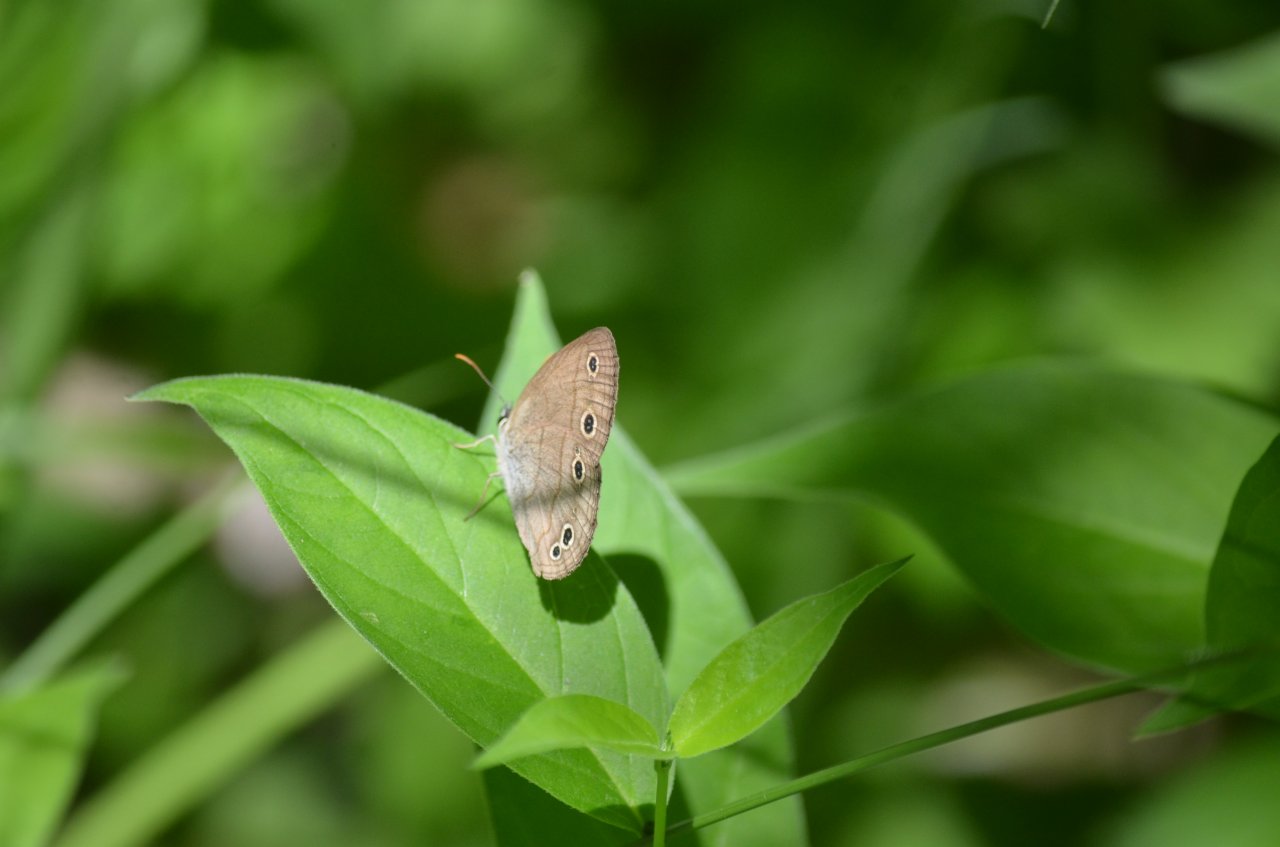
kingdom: Animalia
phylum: Arthropoda
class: Insecta
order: Lepidoptera
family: Nymphalidae
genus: Euptychia
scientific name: Euptychia cymela
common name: Little Wood Satyr
